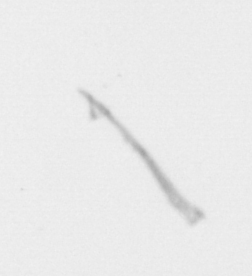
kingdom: Chromista
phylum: Ochrophyta
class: Bacillariophyceae
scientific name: Bacillariophyceae
